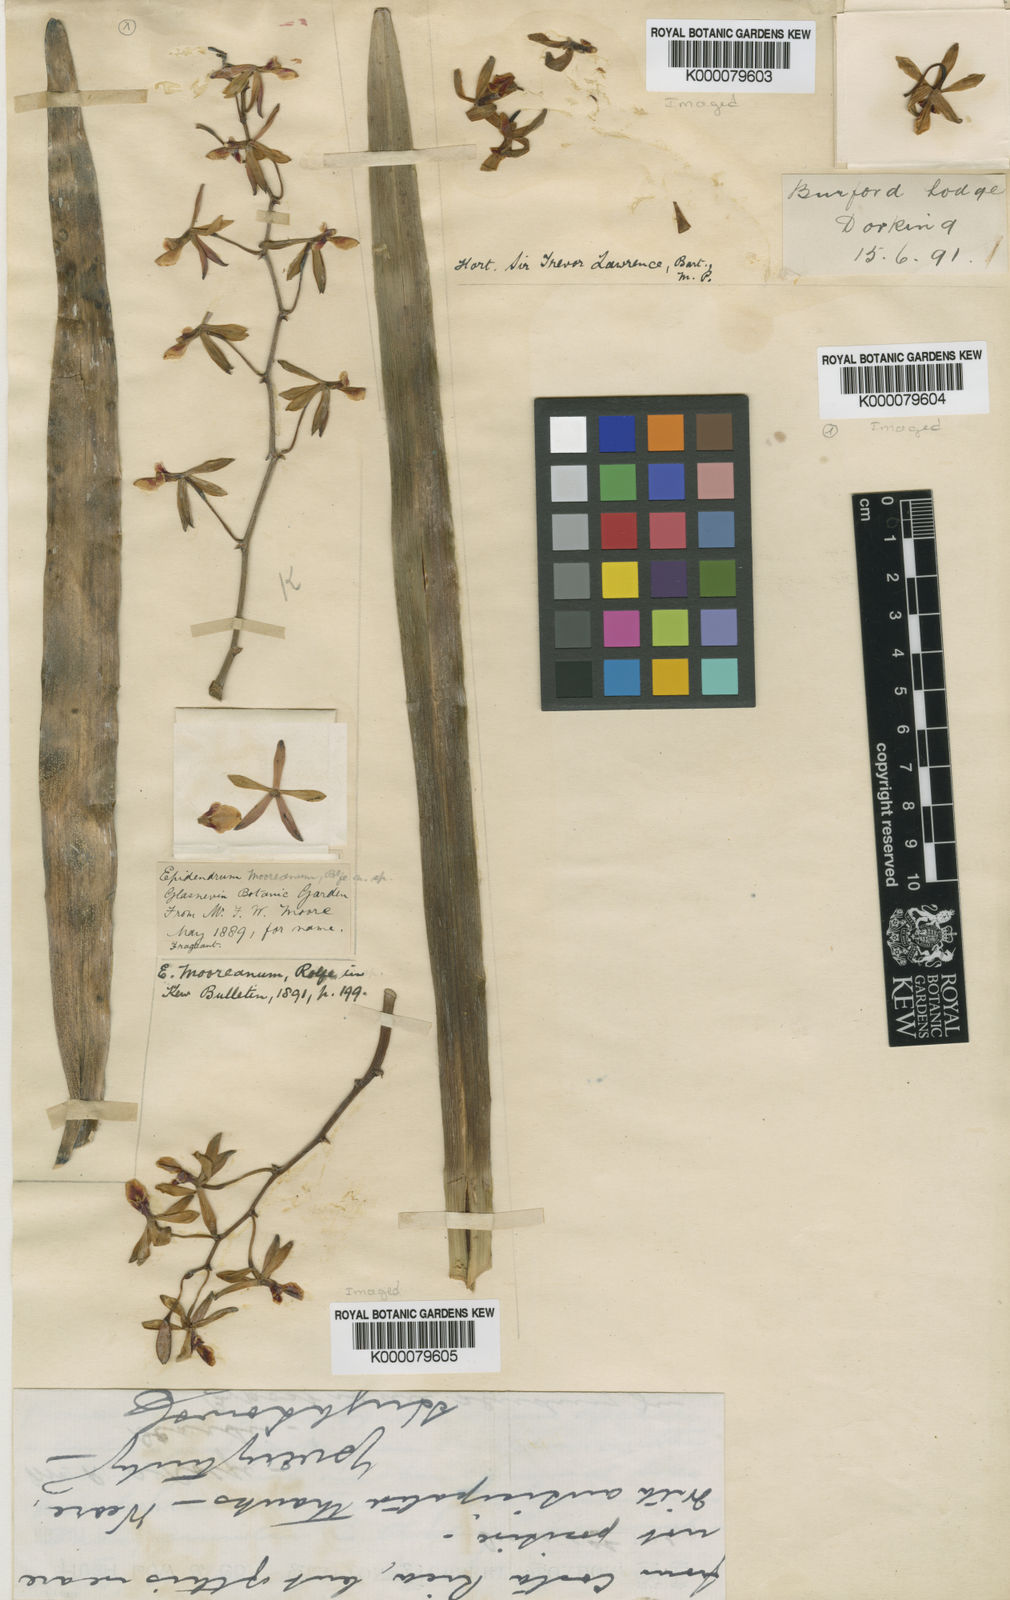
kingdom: Plantae
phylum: Tracheophyta
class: Liliopsida
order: Asparagales
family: Orchidaceae
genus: Encyclia
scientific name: Encyclia mooreana
